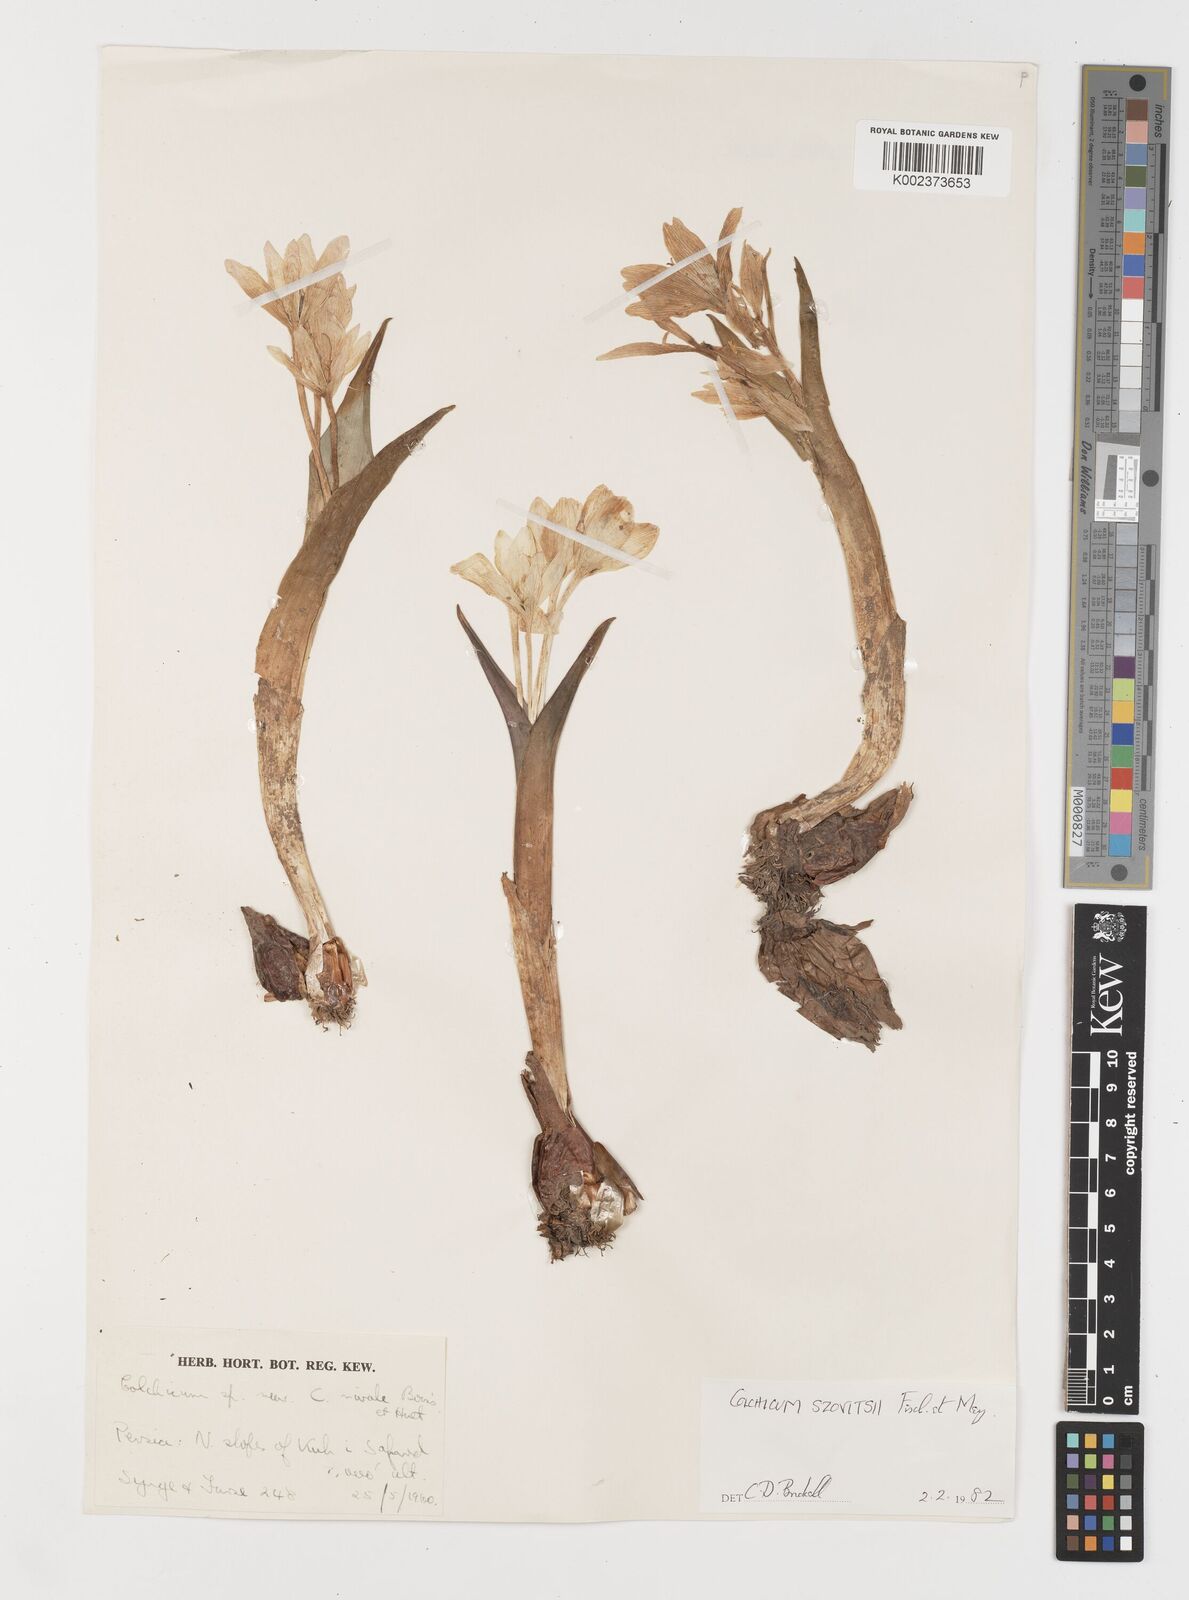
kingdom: Plantae
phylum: Tracheophyta
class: Liliopsida
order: Liliales
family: Colchicaceae
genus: Colchicum
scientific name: Colchicum szovitsii
